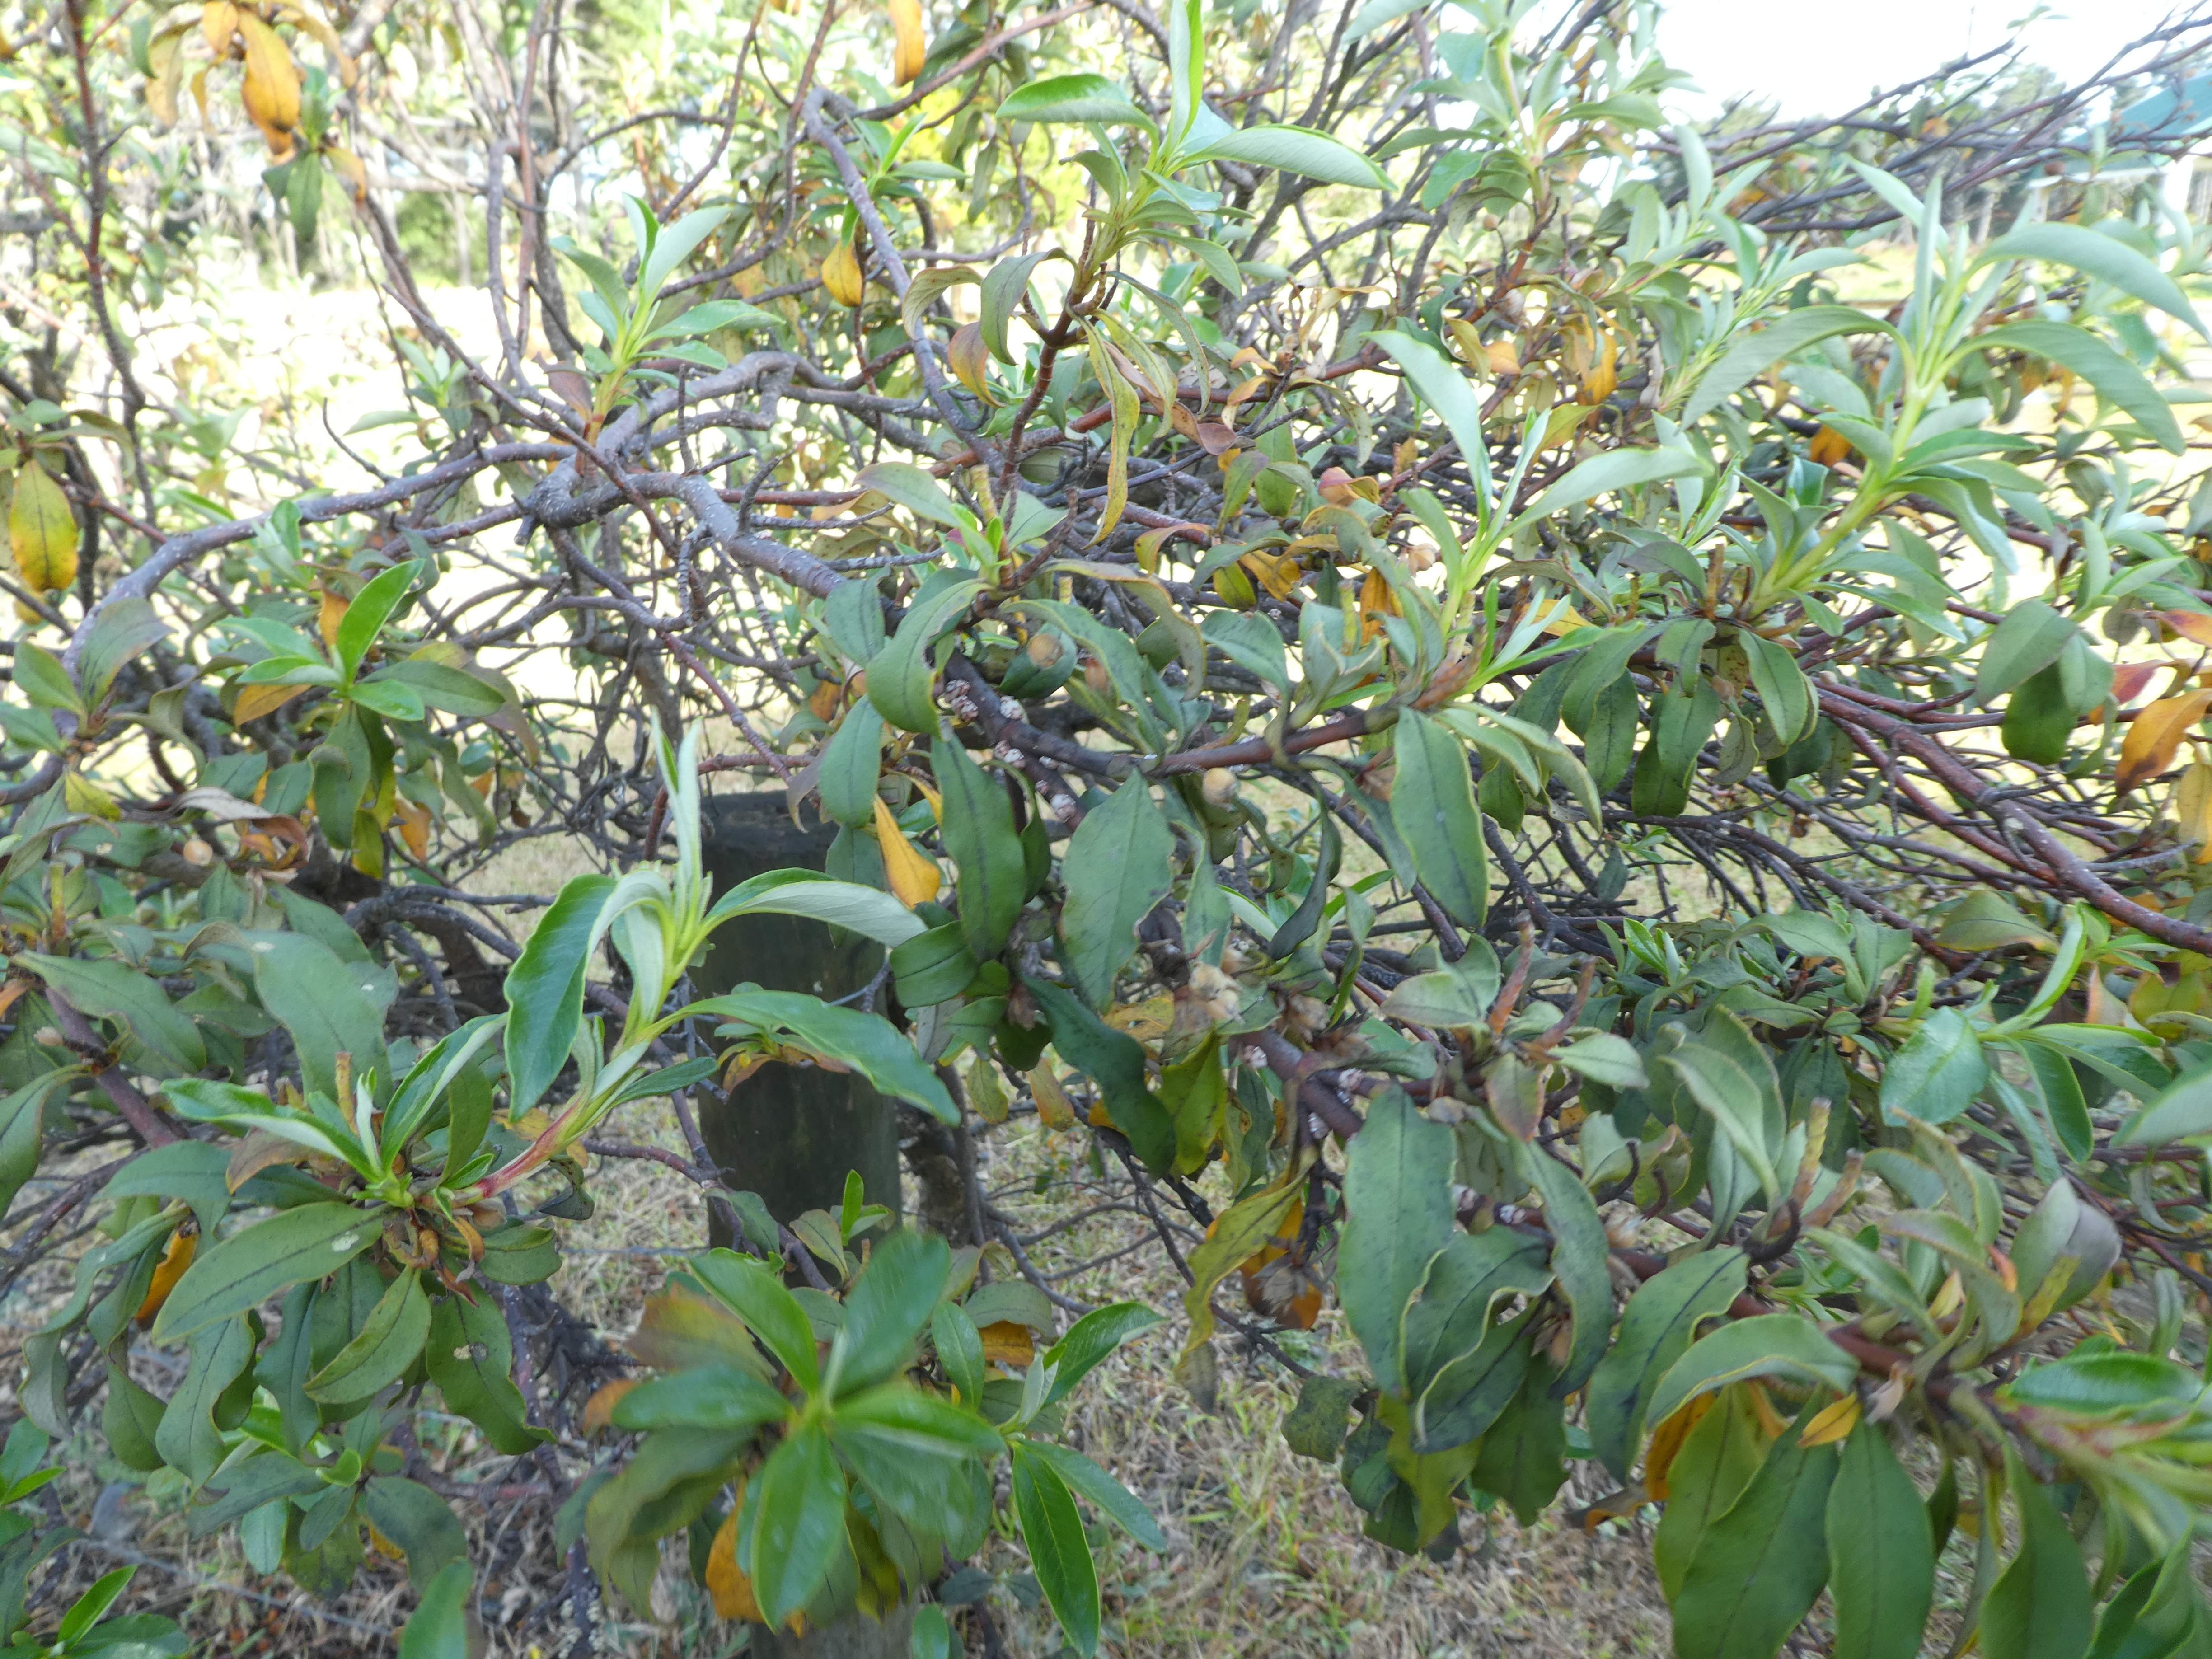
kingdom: Plantae
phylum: Tracheophyta
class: Magnoliopsida
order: Malvales
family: Cistaceae
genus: Cistus
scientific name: Cistus
